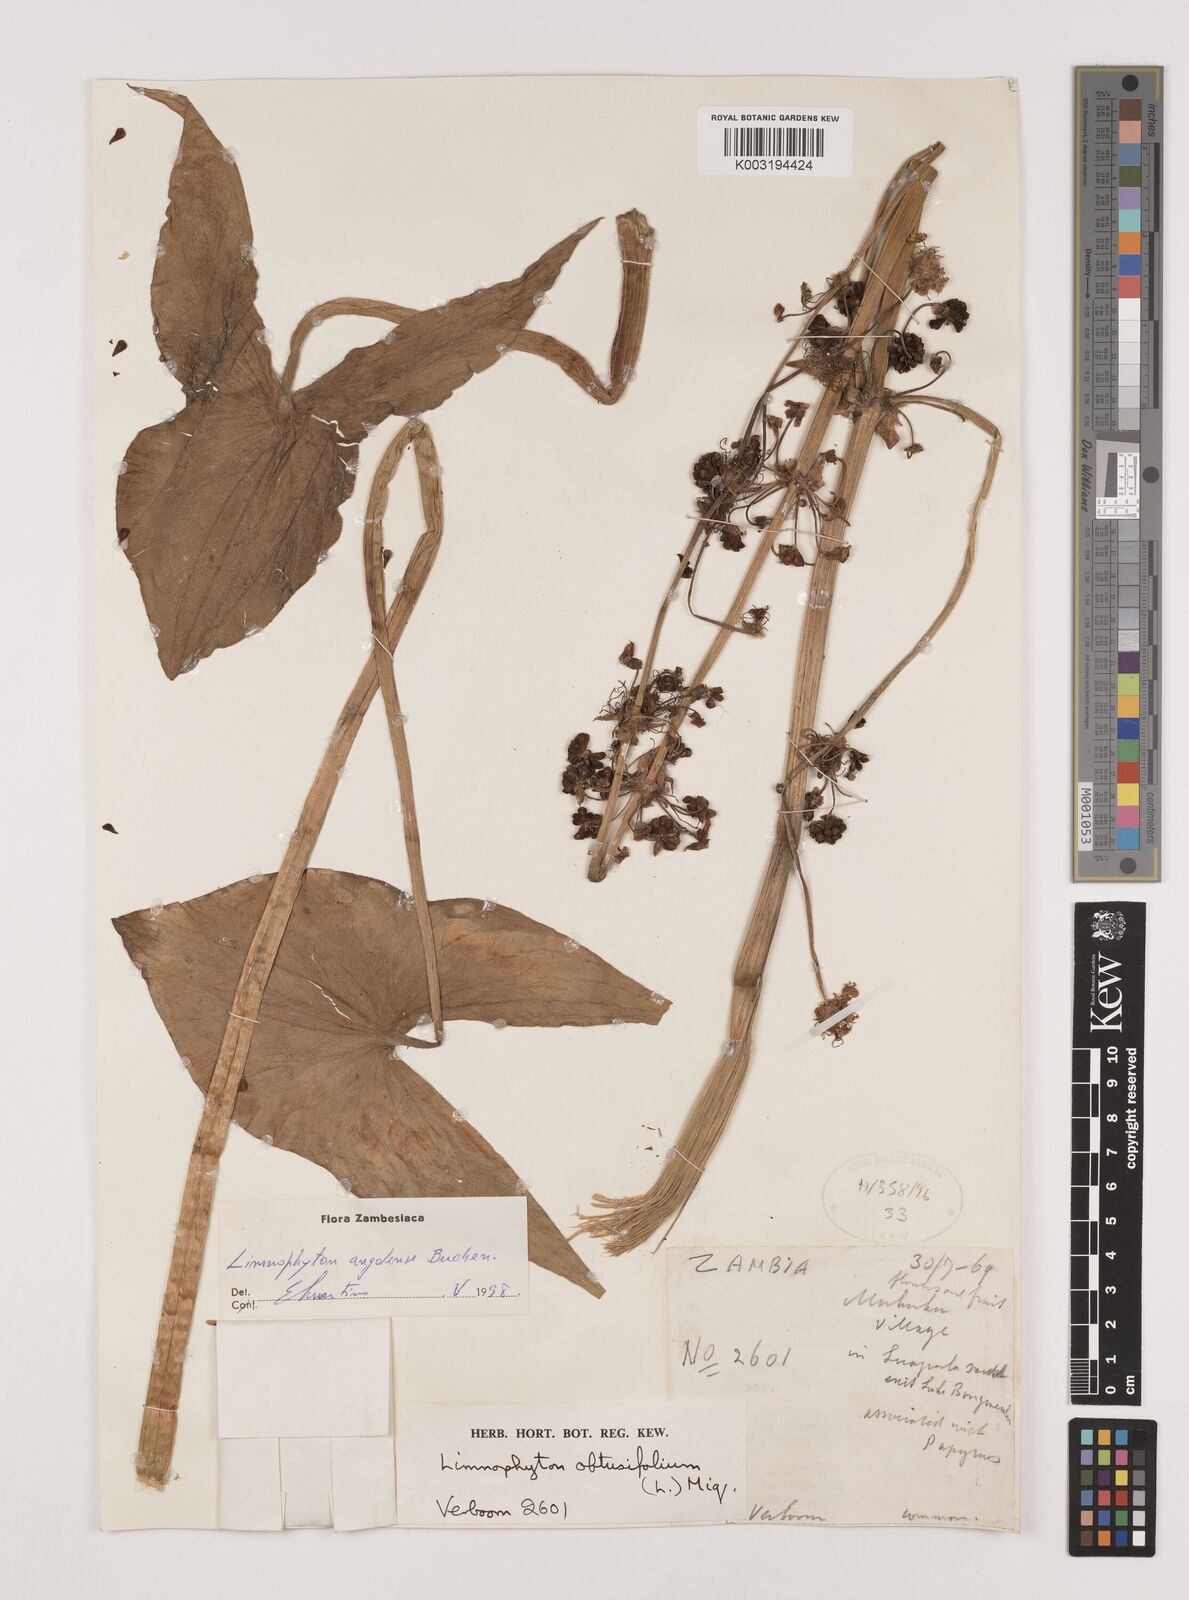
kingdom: Plantae
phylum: Tracheophyta
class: Liliopsida
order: Alismatales
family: Alismataceae
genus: Limnophyton
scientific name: Limnophyton
